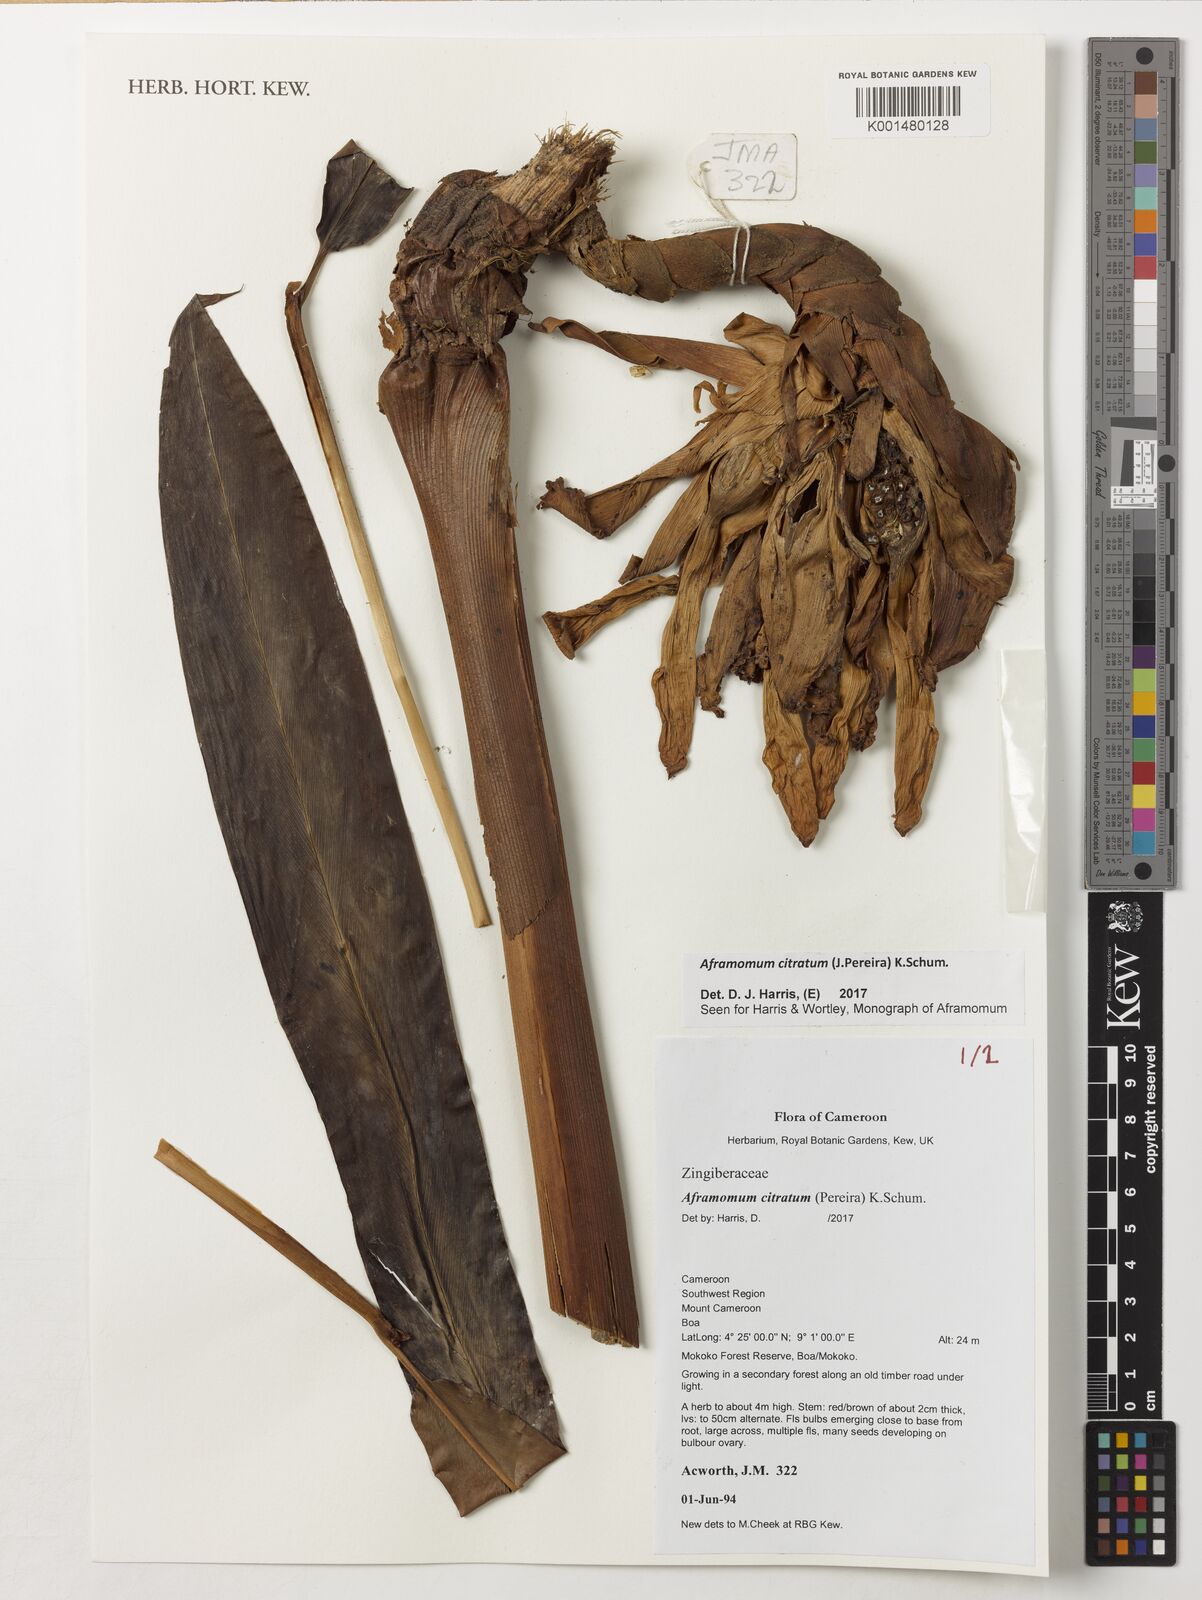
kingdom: Plantae
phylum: Tracheophyta
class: Liliopsida
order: Zingiberales
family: Zingiberaceae
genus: Aframomum
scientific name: Aframomum citratum
